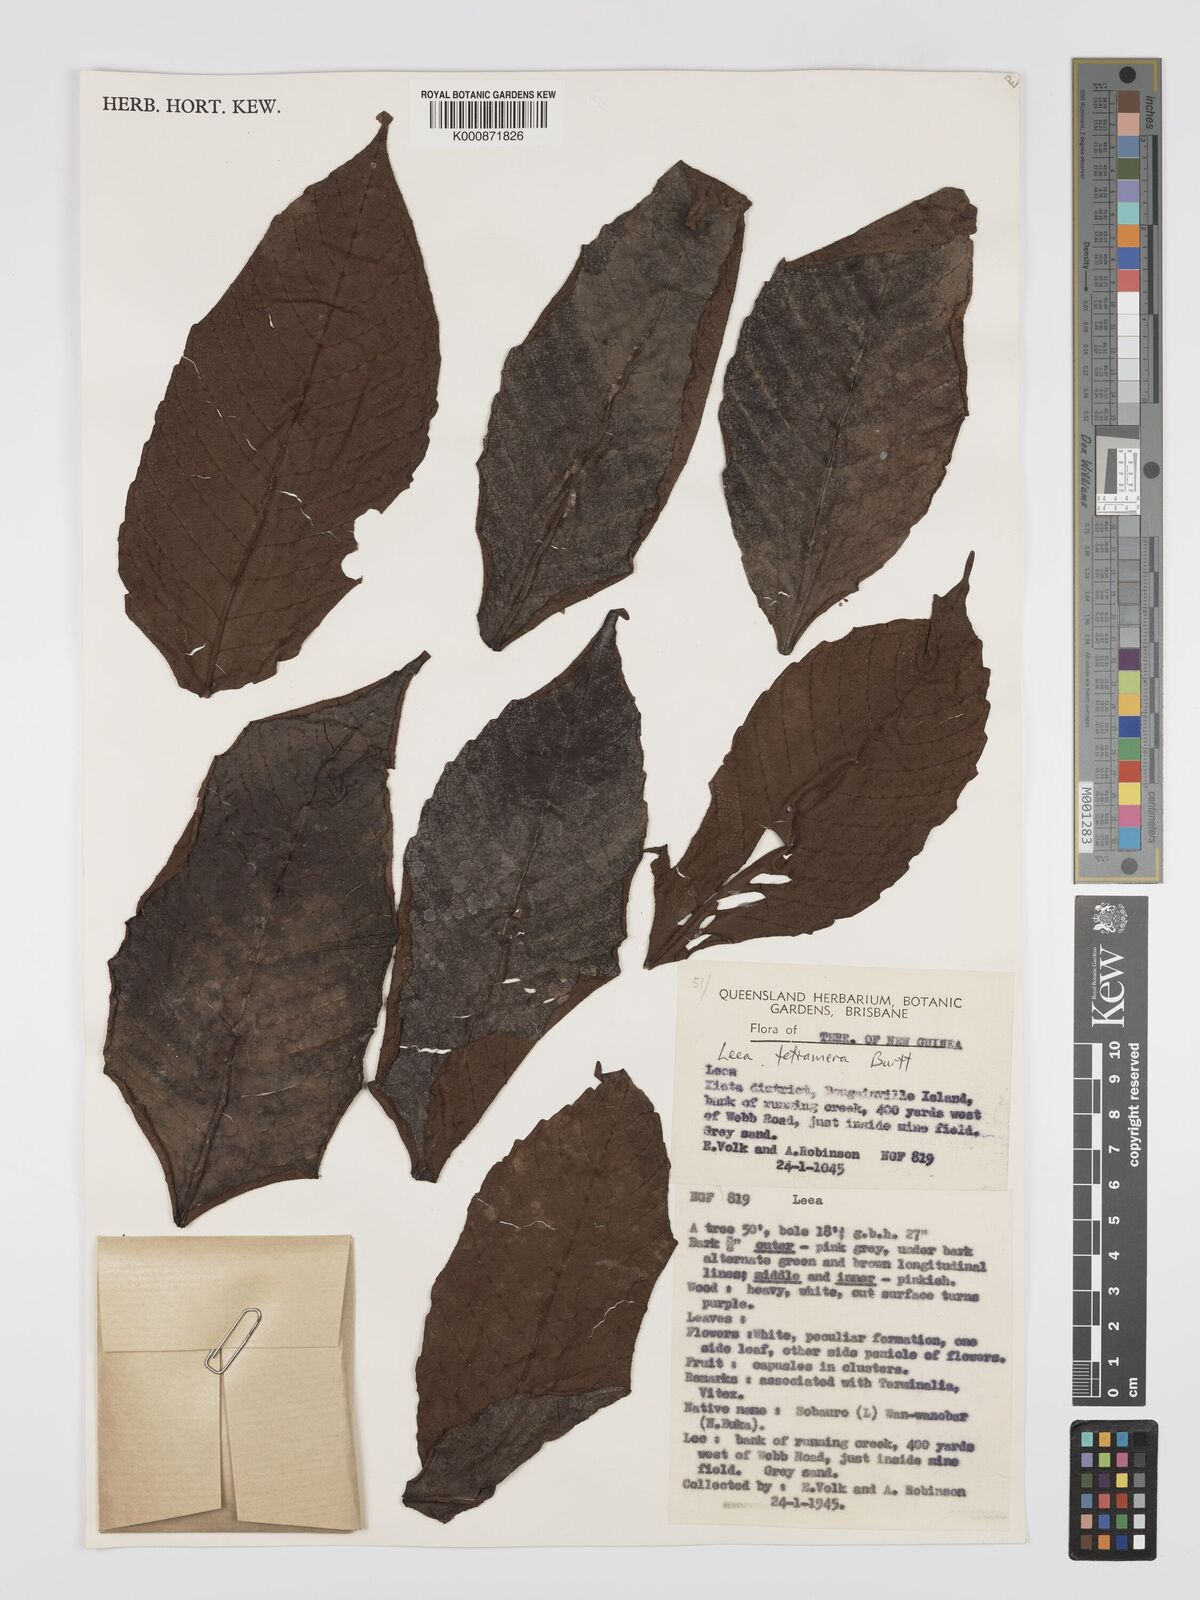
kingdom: Plantae
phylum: Tracheophyta
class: Magnoliopsida
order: Vitales
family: Vitaceae
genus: Leea
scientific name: Leea tetramera
